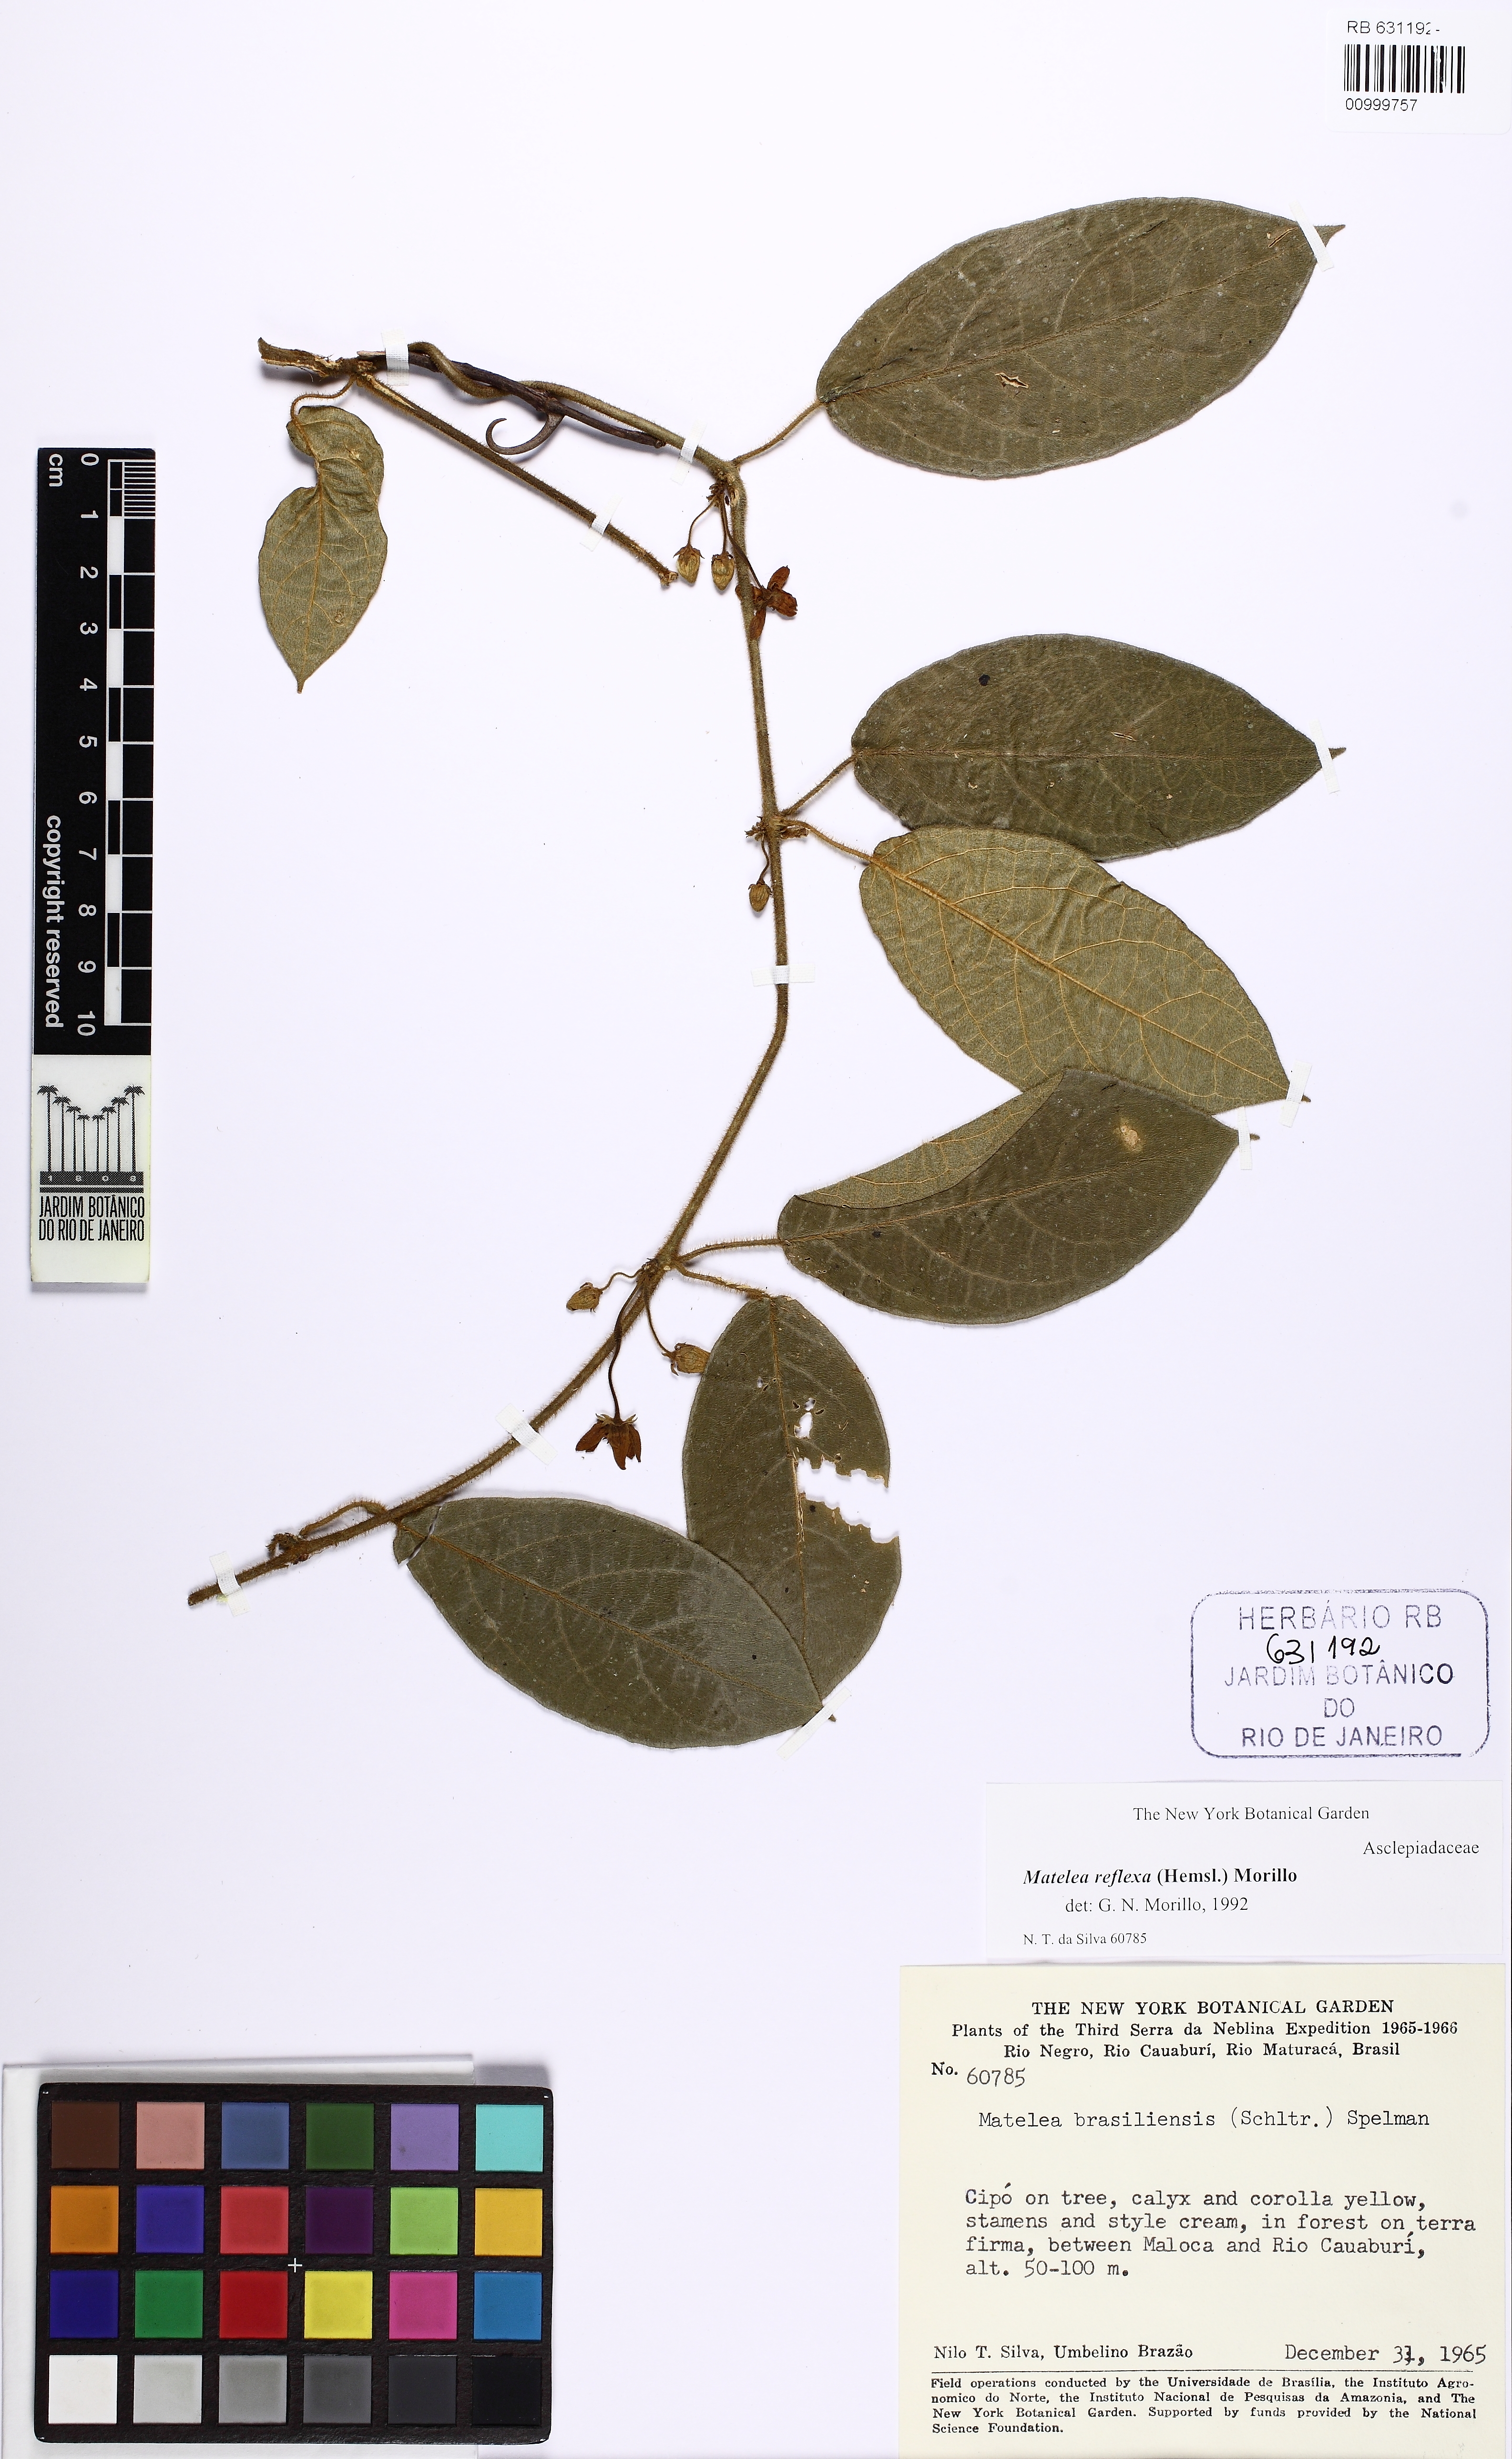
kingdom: Plantae
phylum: Tracheophyta
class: Magnoliopsida
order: Gentianales
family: Apocynaceae
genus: Pseudolachnostoma
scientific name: Pseudolachnostoma reflexum
